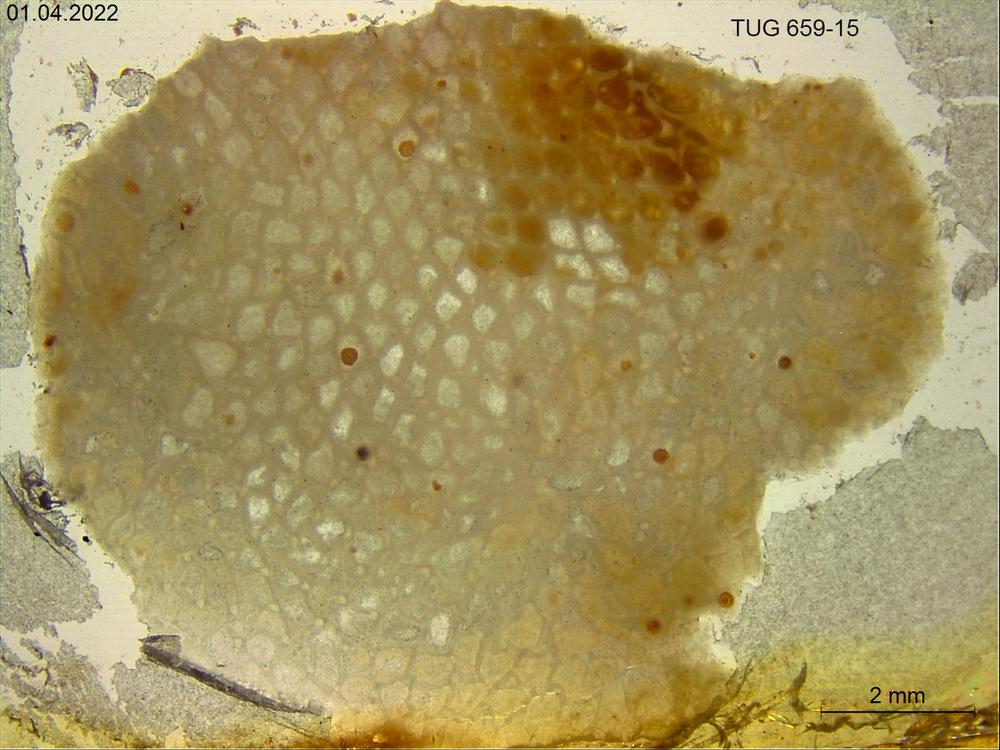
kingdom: Animalia
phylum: Porifera
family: Stromatoporidae
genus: Stromatopora
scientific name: Stromatopora
